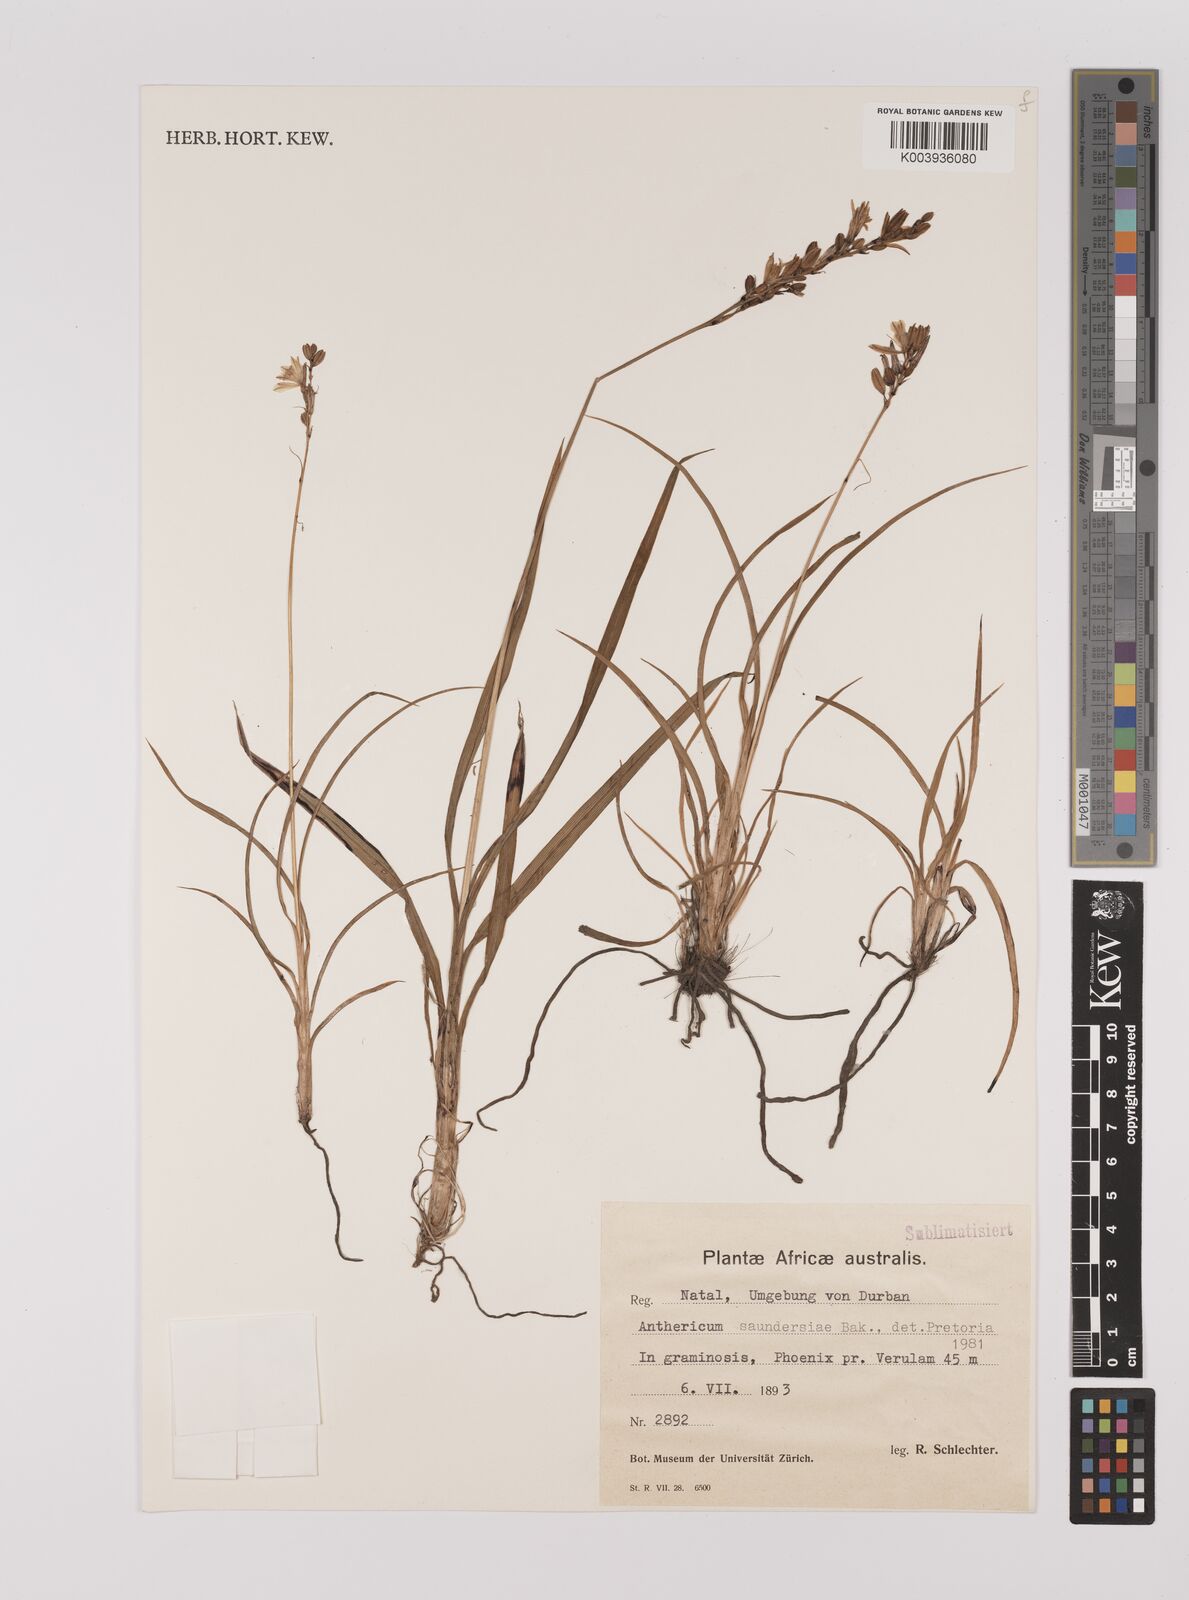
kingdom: Plantae
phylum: Tracheophyta
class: Liliopsida
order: Asparagales
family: Asparagaceae
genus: Chlorophytum
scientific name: Chlorophytum saundersiae
